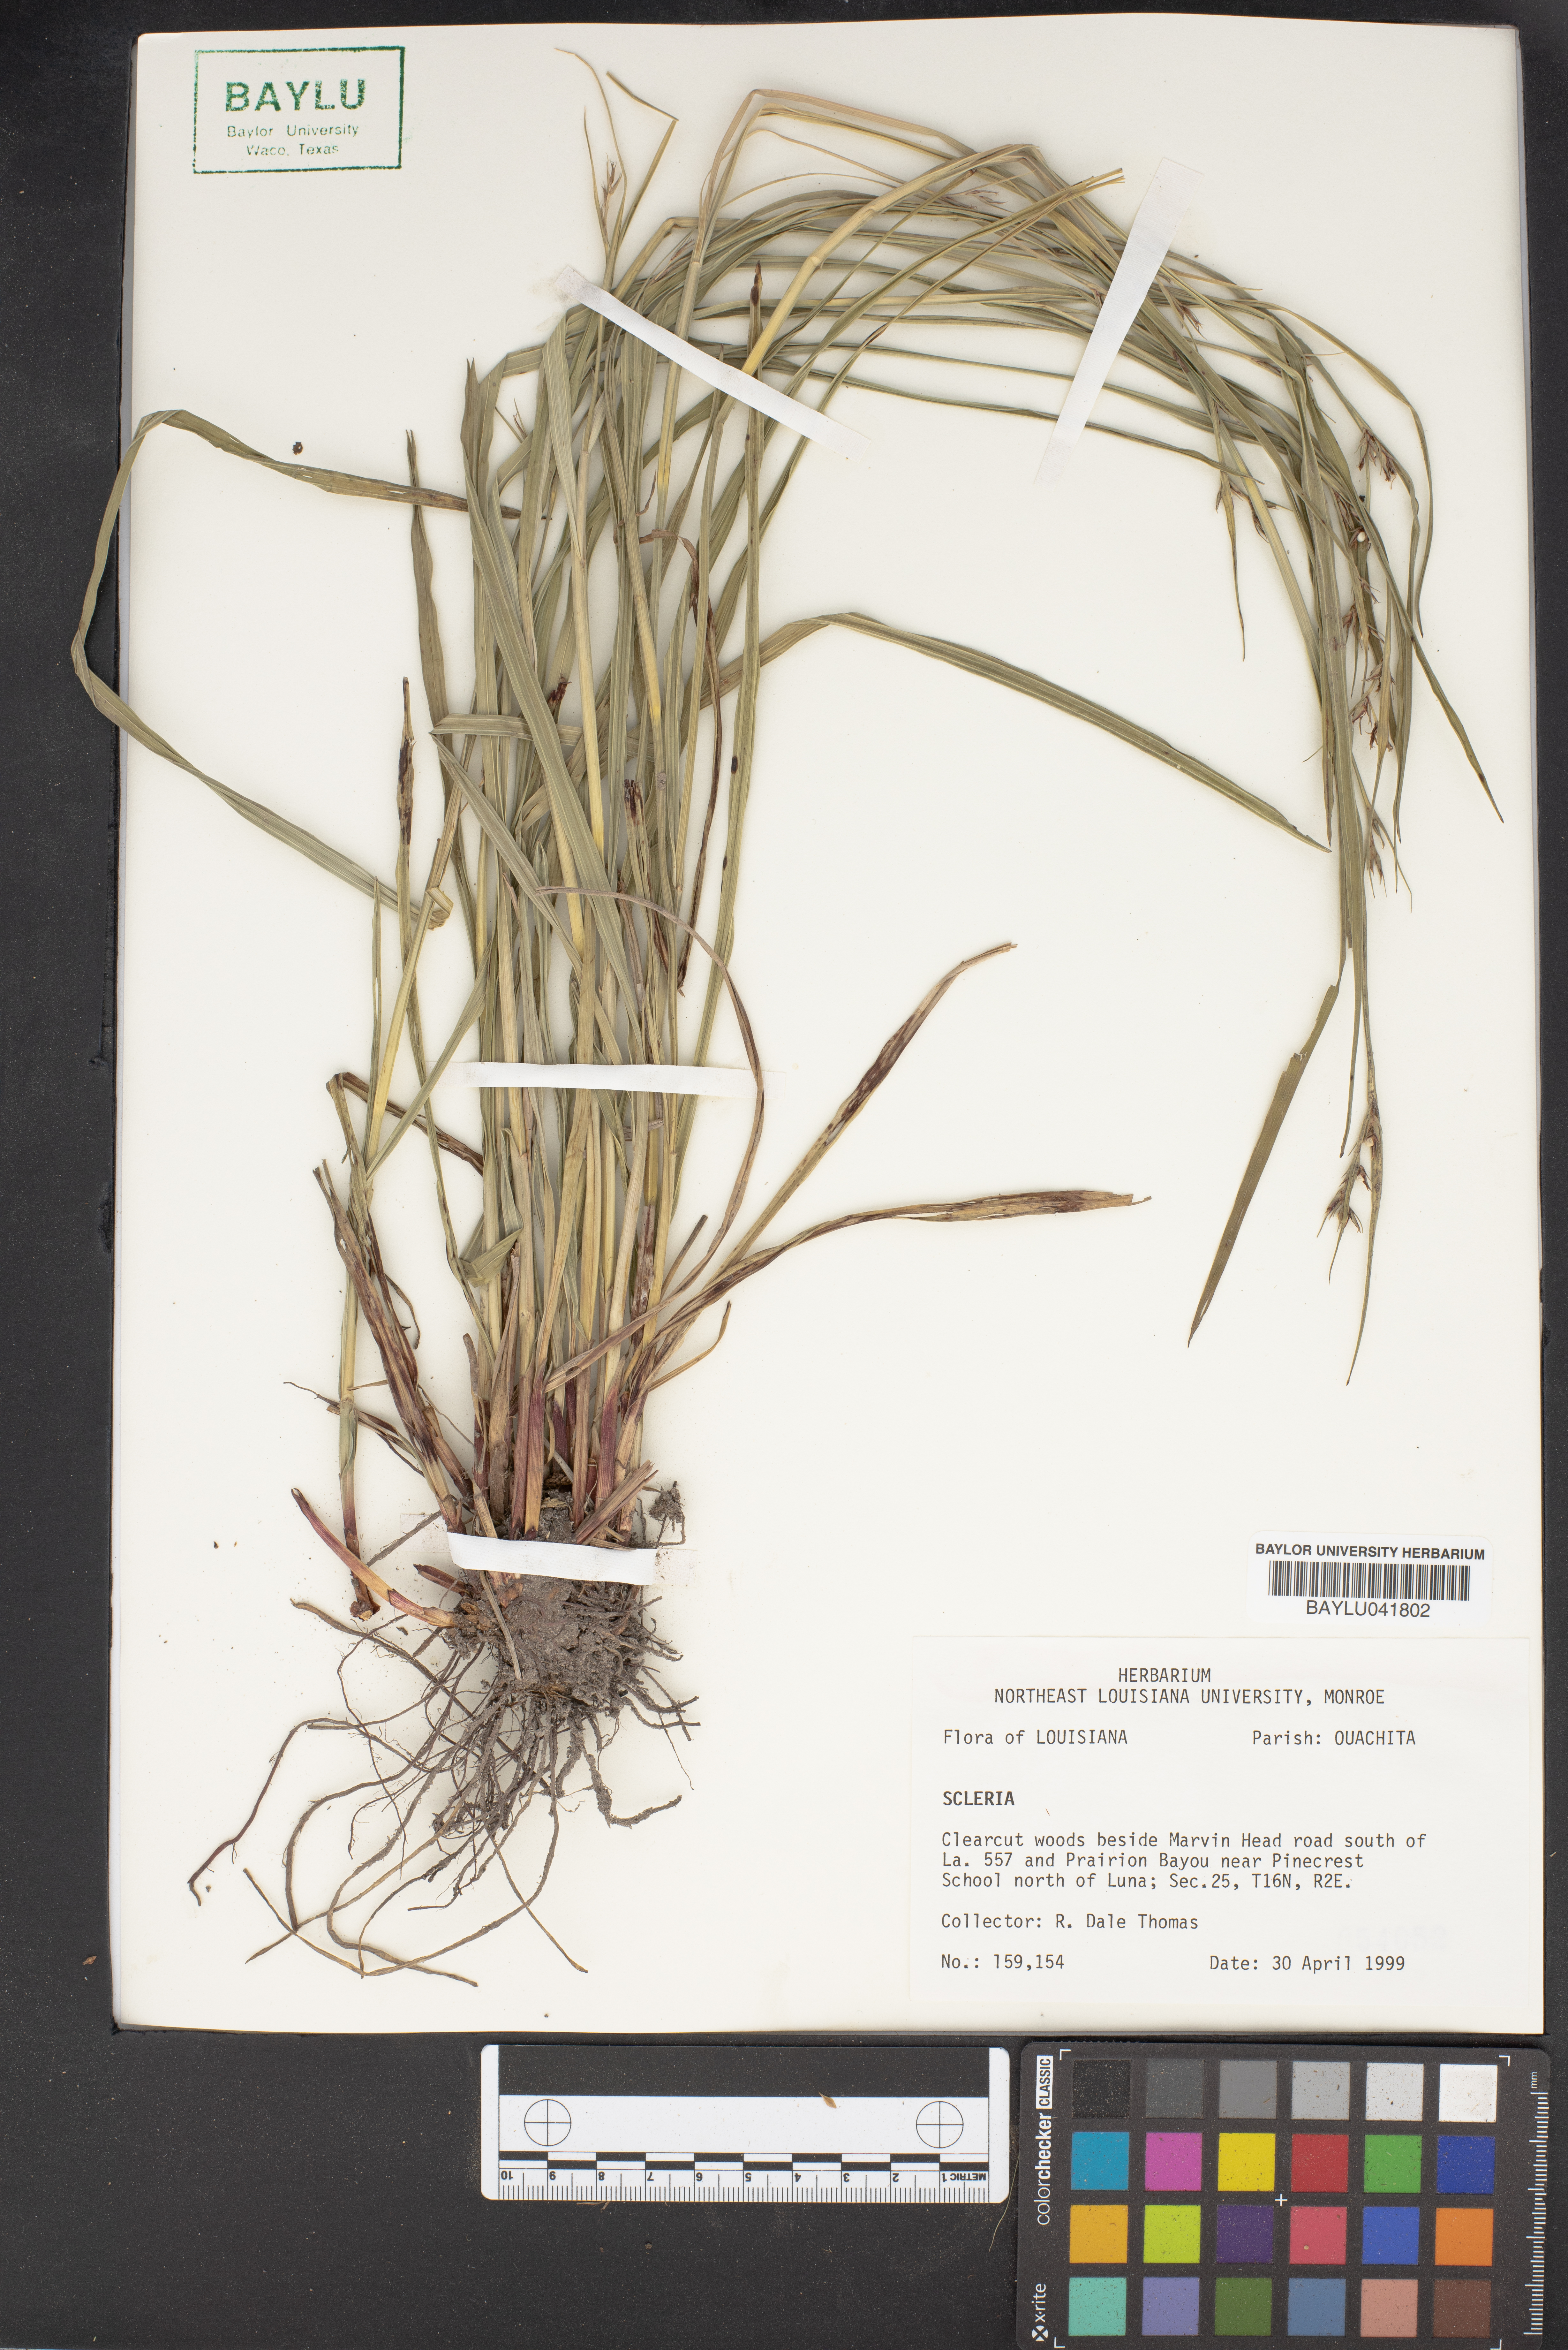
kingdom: Plantae
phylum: Tracheophyta
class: Liliopsida
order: Poales
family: Cyperaceae
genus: Scleria
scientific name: Scleria
